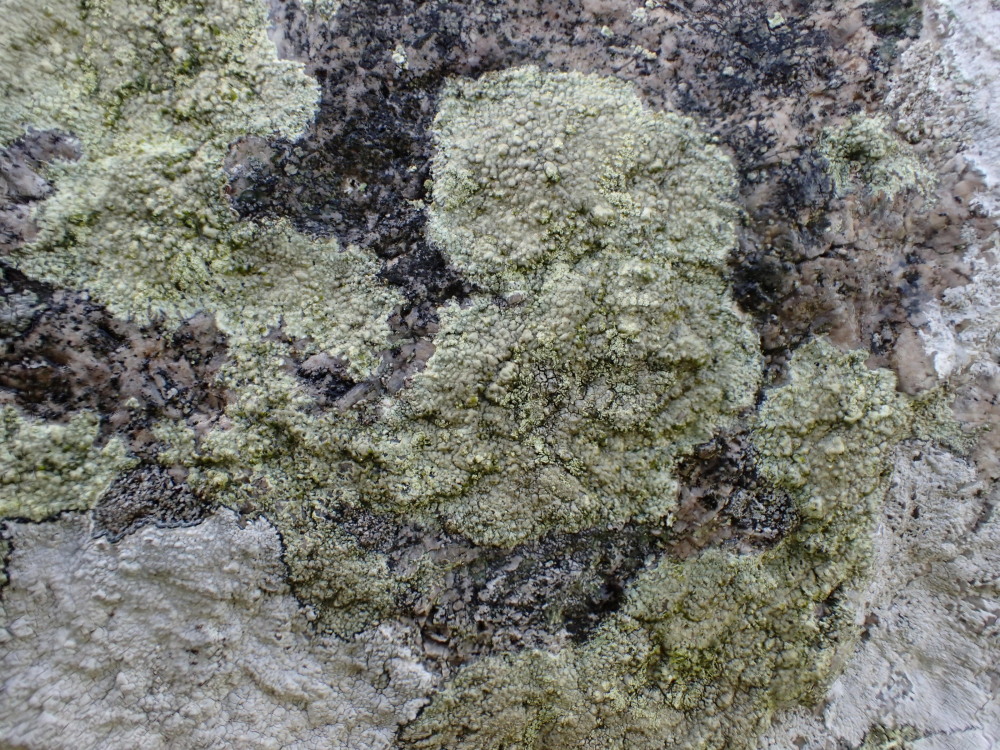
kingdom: Fungi
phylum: Ascomycota
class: Lecanoromycetes
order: Lecanorales
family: Lecanoraceae
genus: Lecanora
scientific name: Lecanora orosthea
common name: grønskurvet kantskivelav
